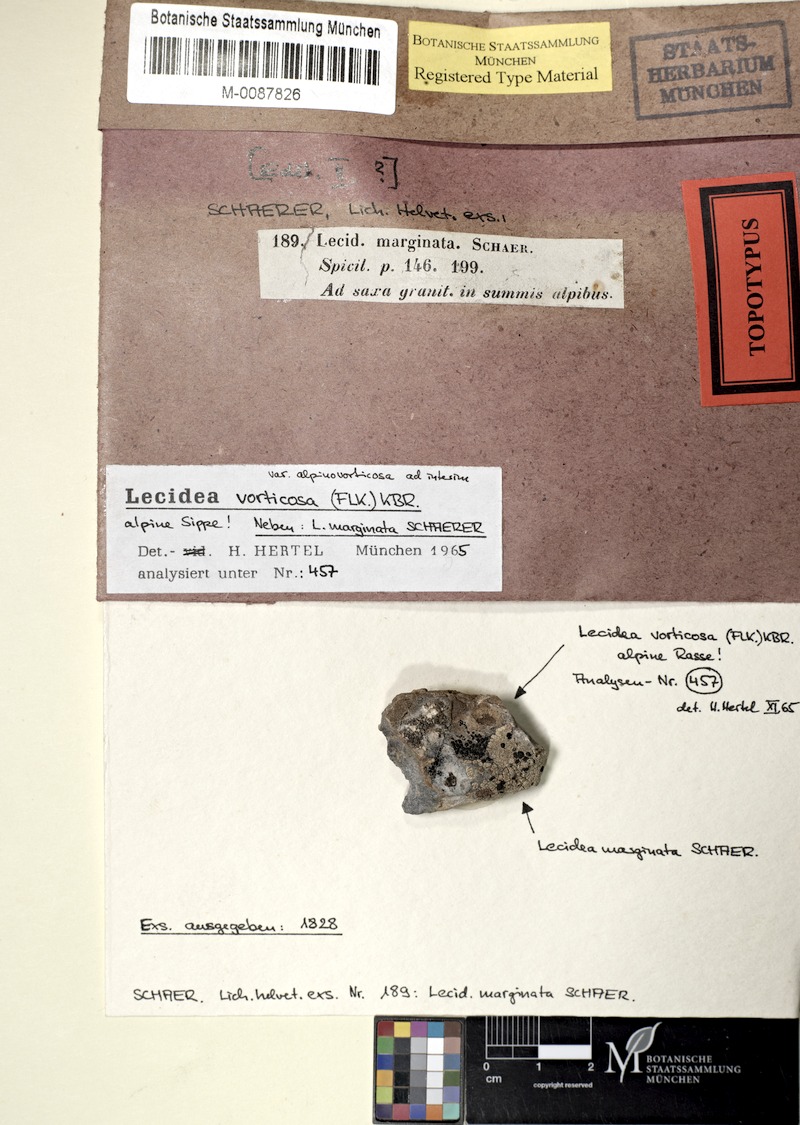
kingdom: Fungi
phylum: Ascomycota
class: Lecanoromycetes
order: Lecanorales
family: Lecanoraceae
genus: Lecanora
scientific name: Lecanora marginata
